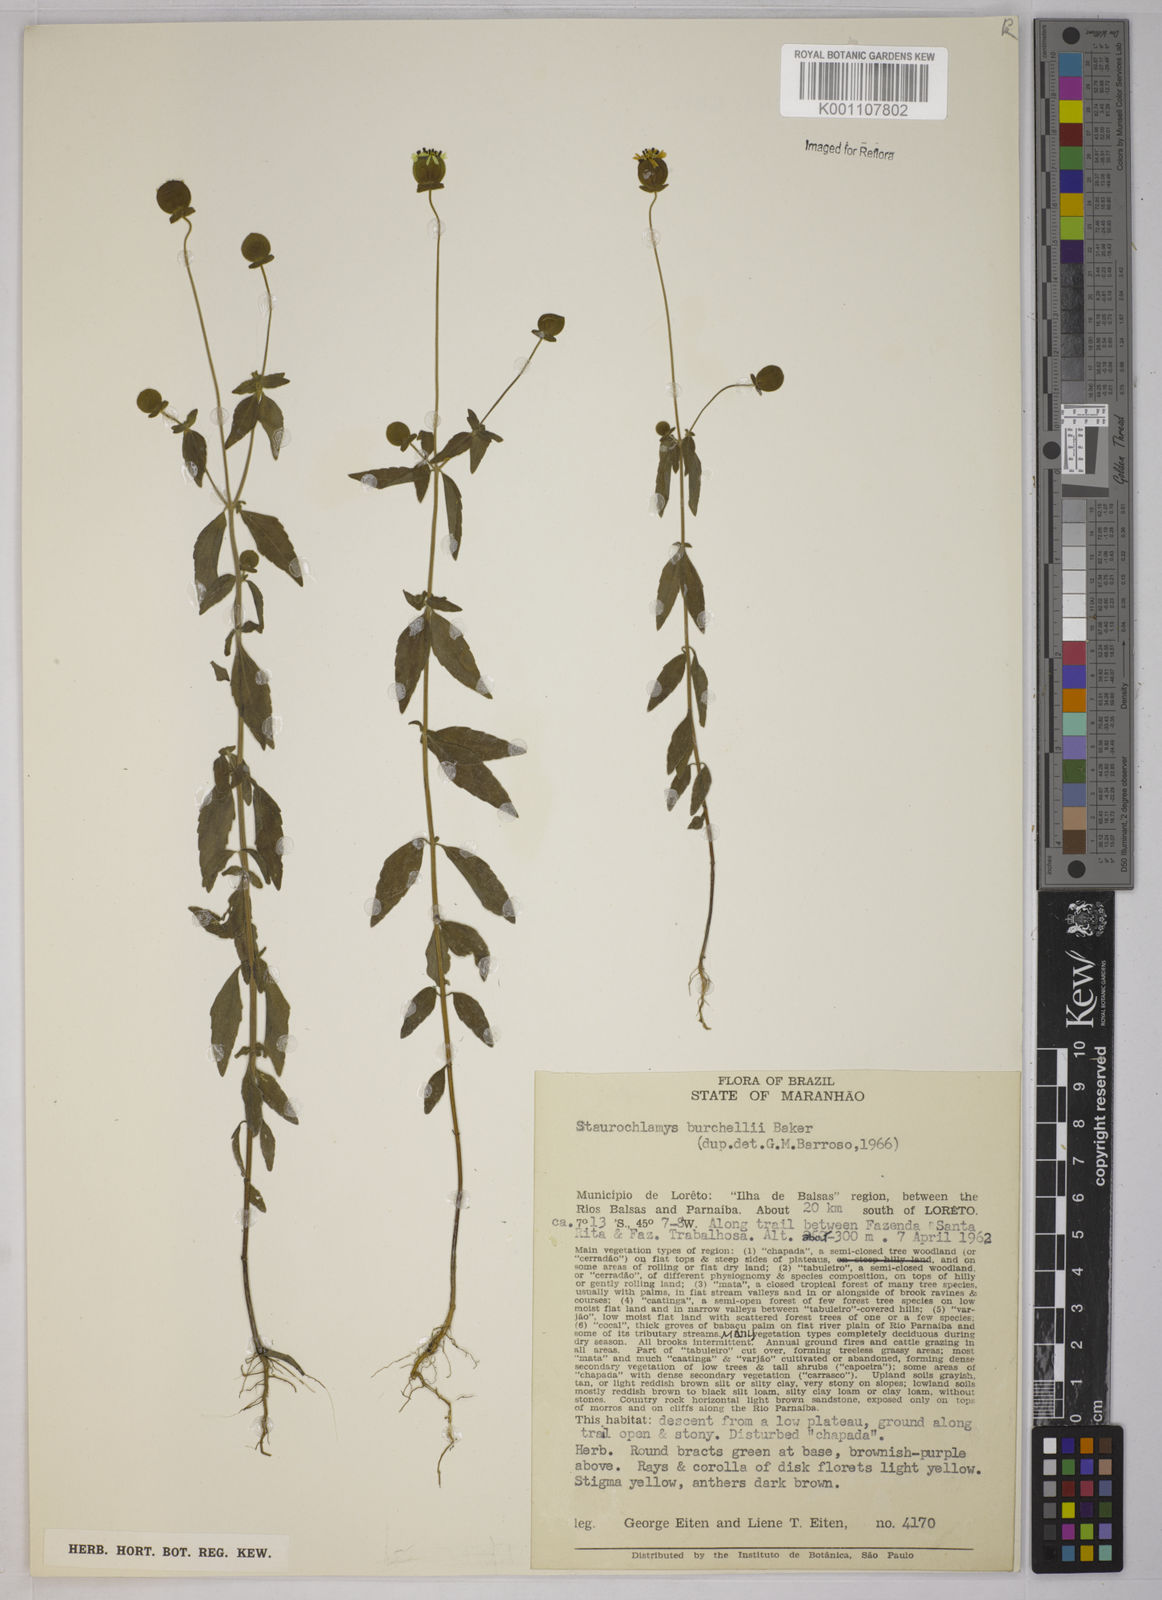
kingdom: Plantae
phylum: Tracheophyta
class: Magnoliopsida
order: Asterales
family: Asteraceae
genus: Staurochlamys
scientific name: Staurochlamys burchellii
